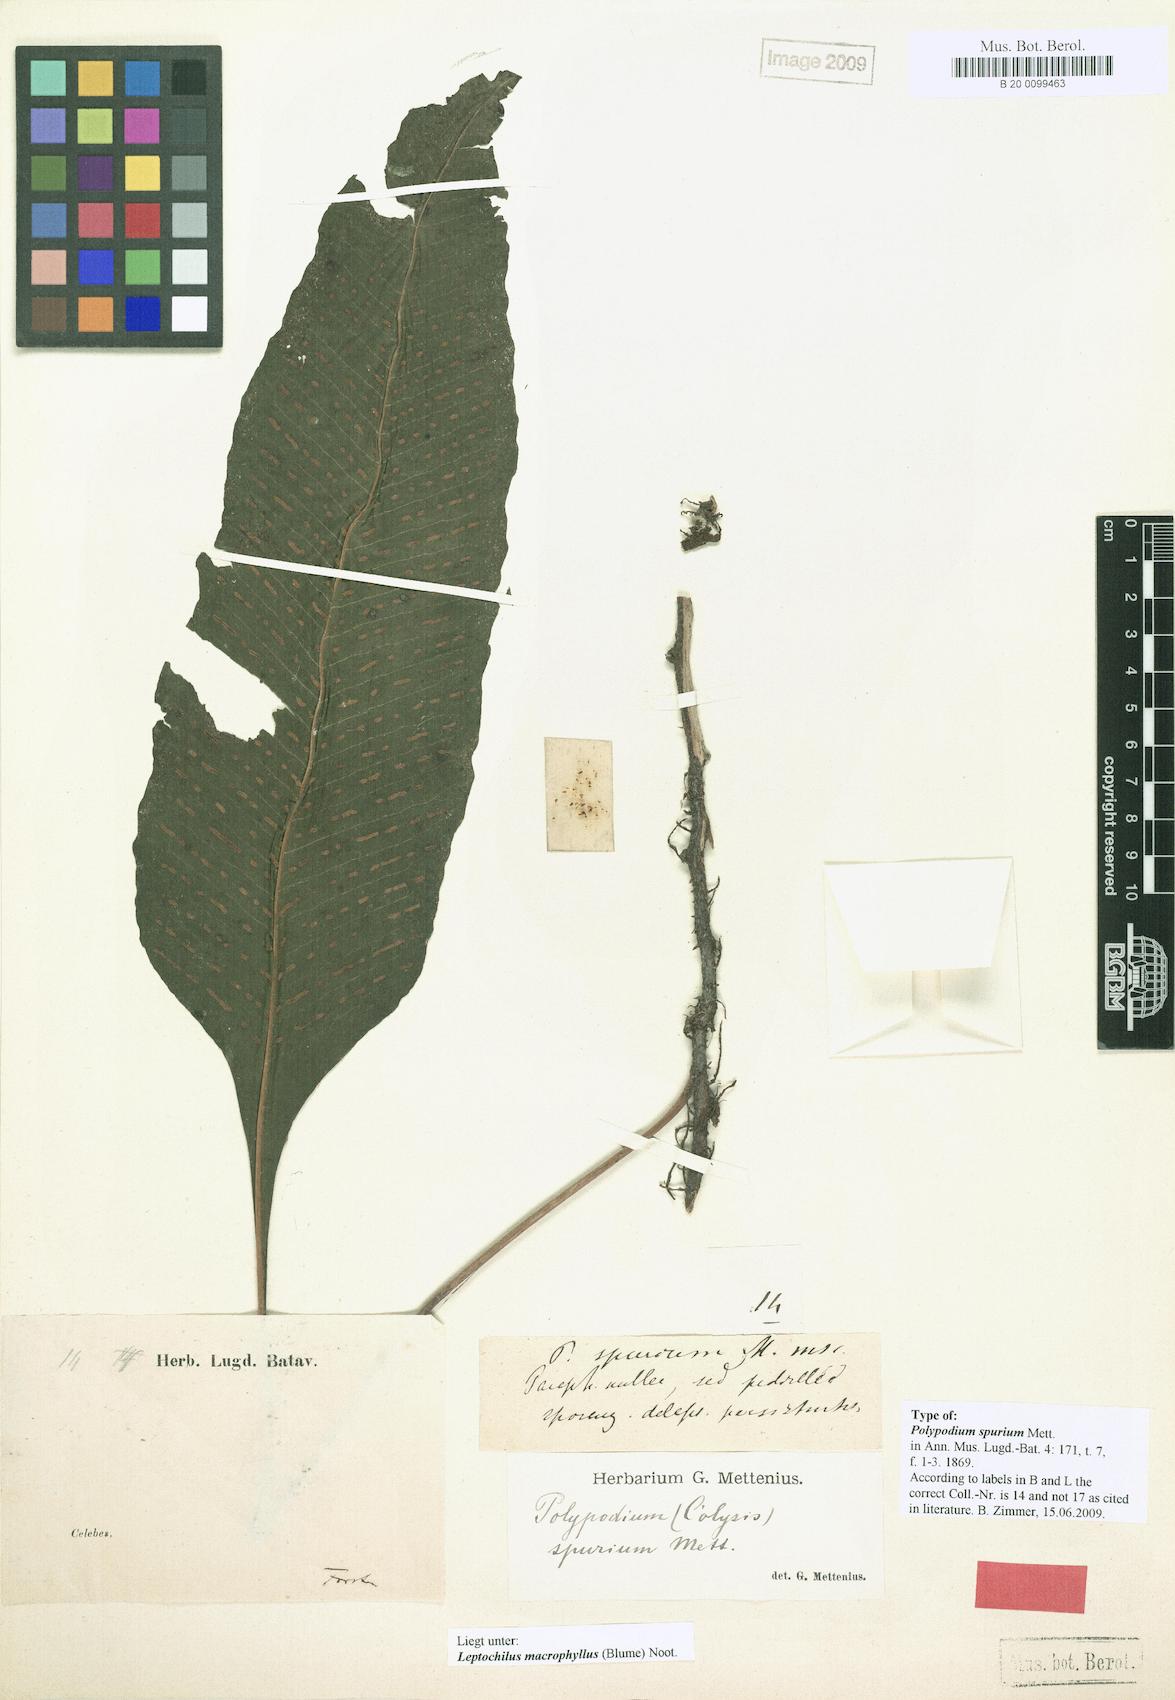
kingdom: Plantae
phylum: Tracheophyta
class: Polypodiopsida
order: Polypodiales
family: Polypodiaceae
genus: Leptochilus
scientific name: Leptochilus macrophyllus
